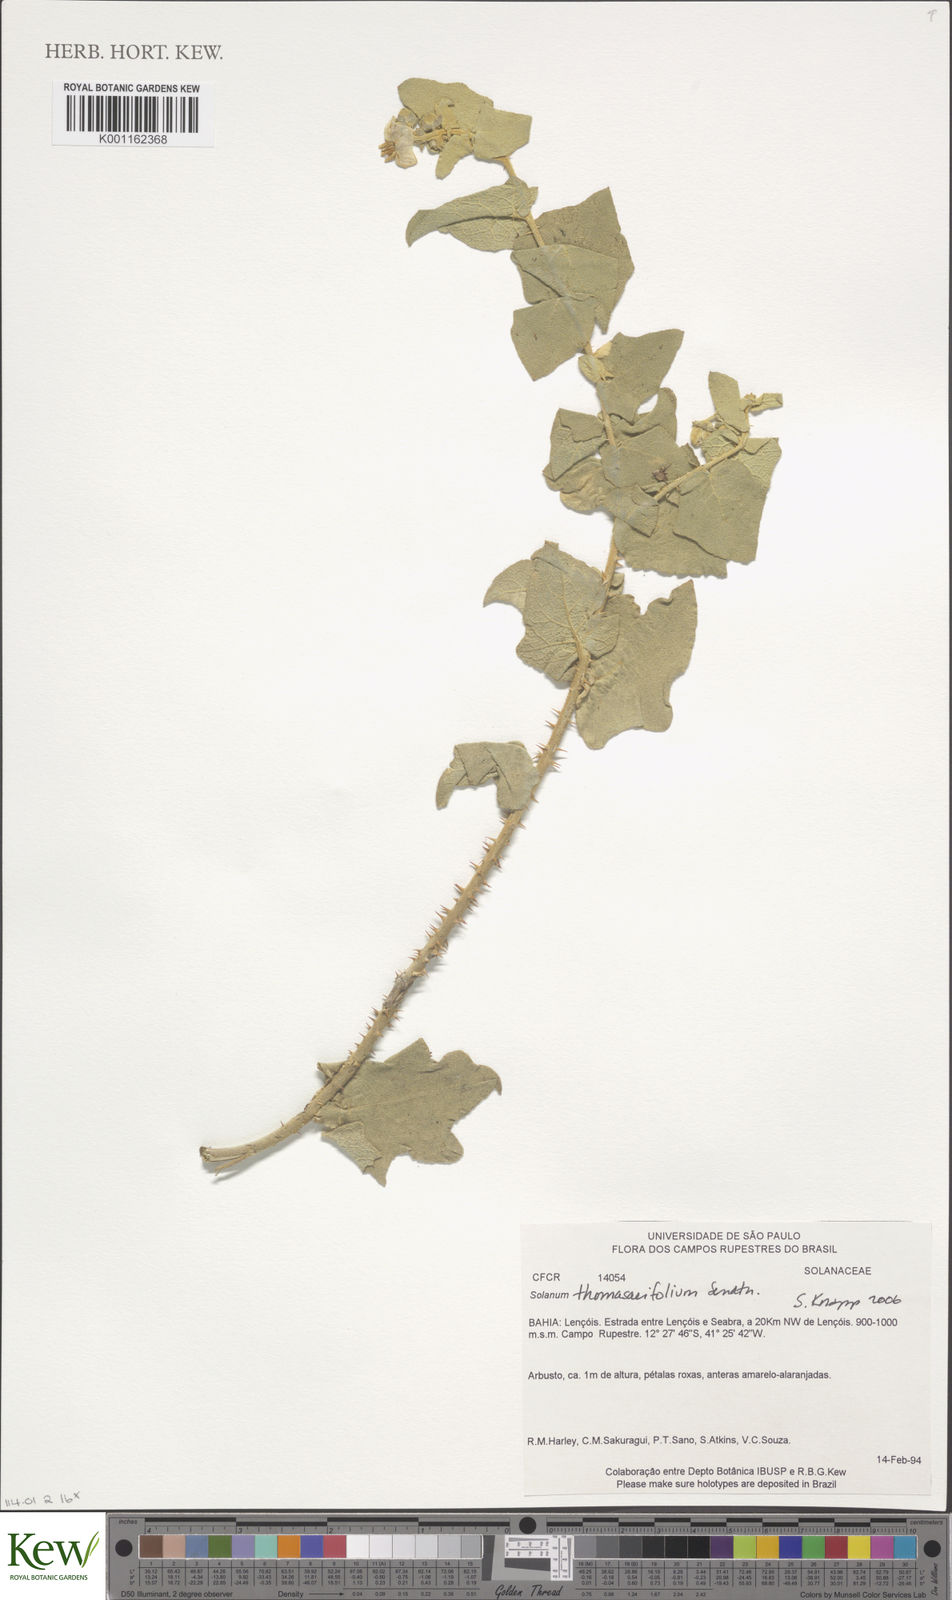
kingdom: Plantae
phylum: Tracheophyta
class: Magnoliopsida
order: Solanales
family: Solanaceae
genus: Solanum
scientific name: Solanum thomasiifolium
